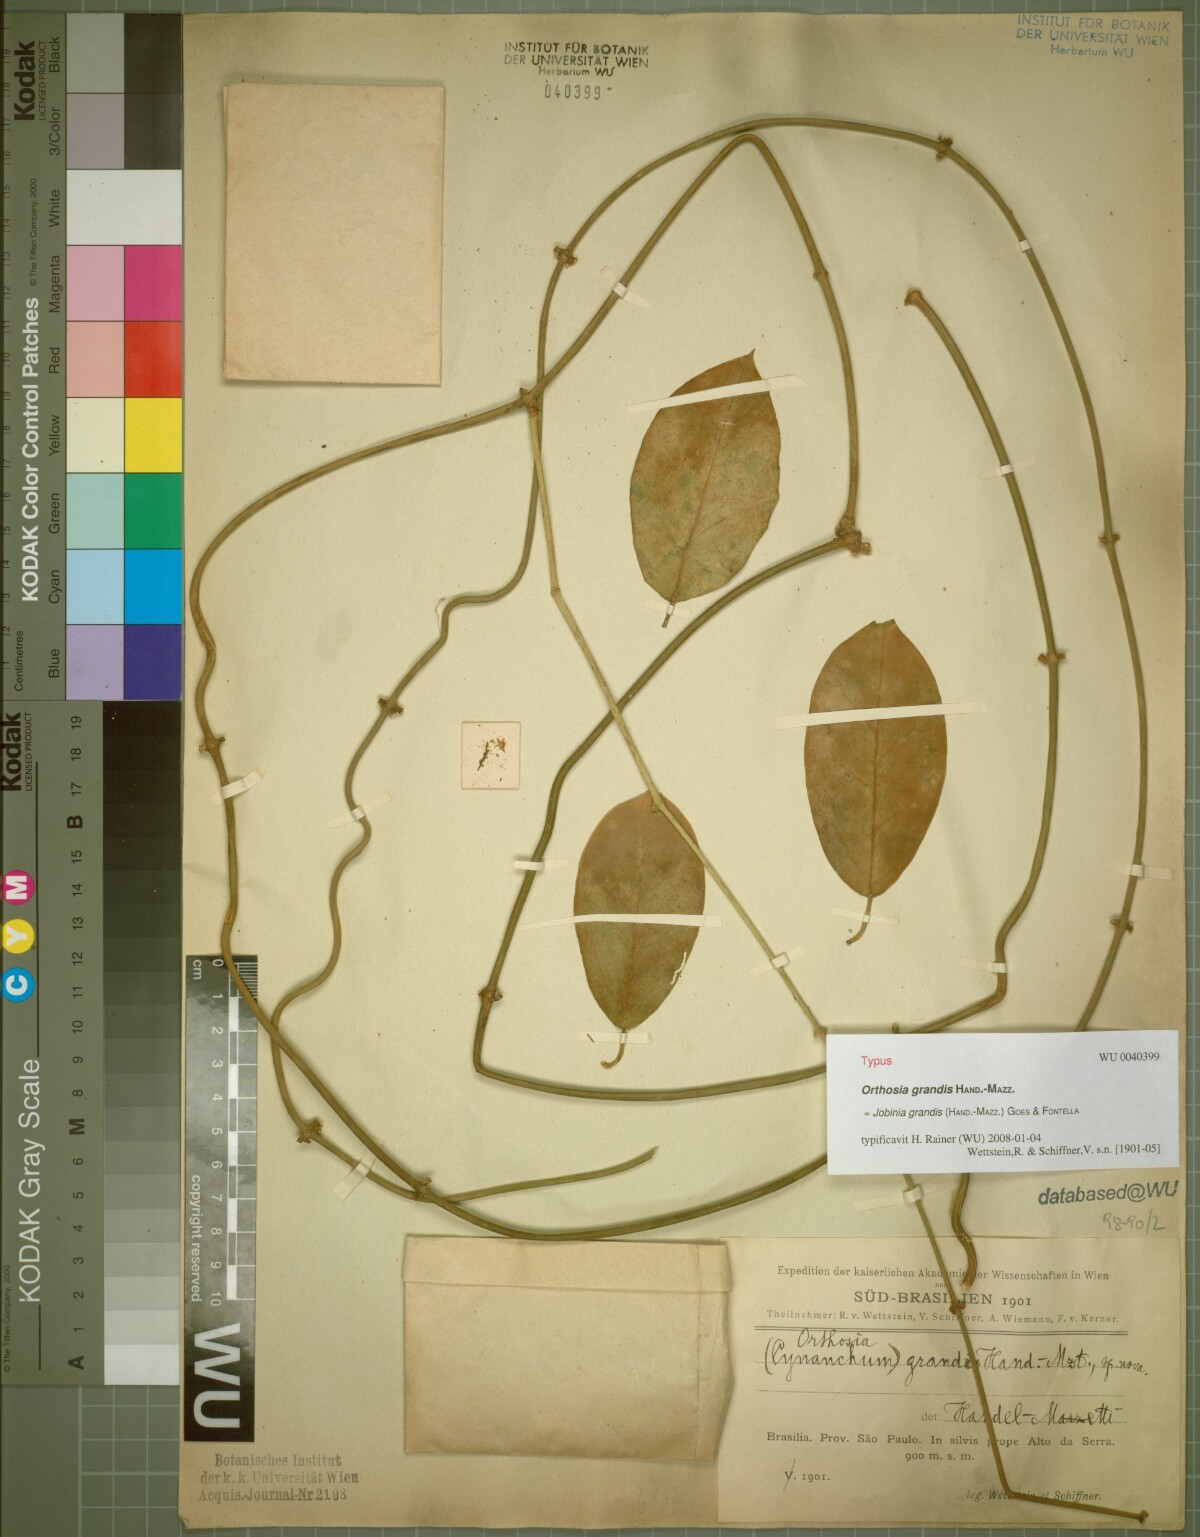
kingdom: Plantae
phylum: Tracheophyta
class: Magnoliopsida
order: Gentianales
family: Apocynaceae
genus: Jobinia
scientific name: Jobinia grandis
